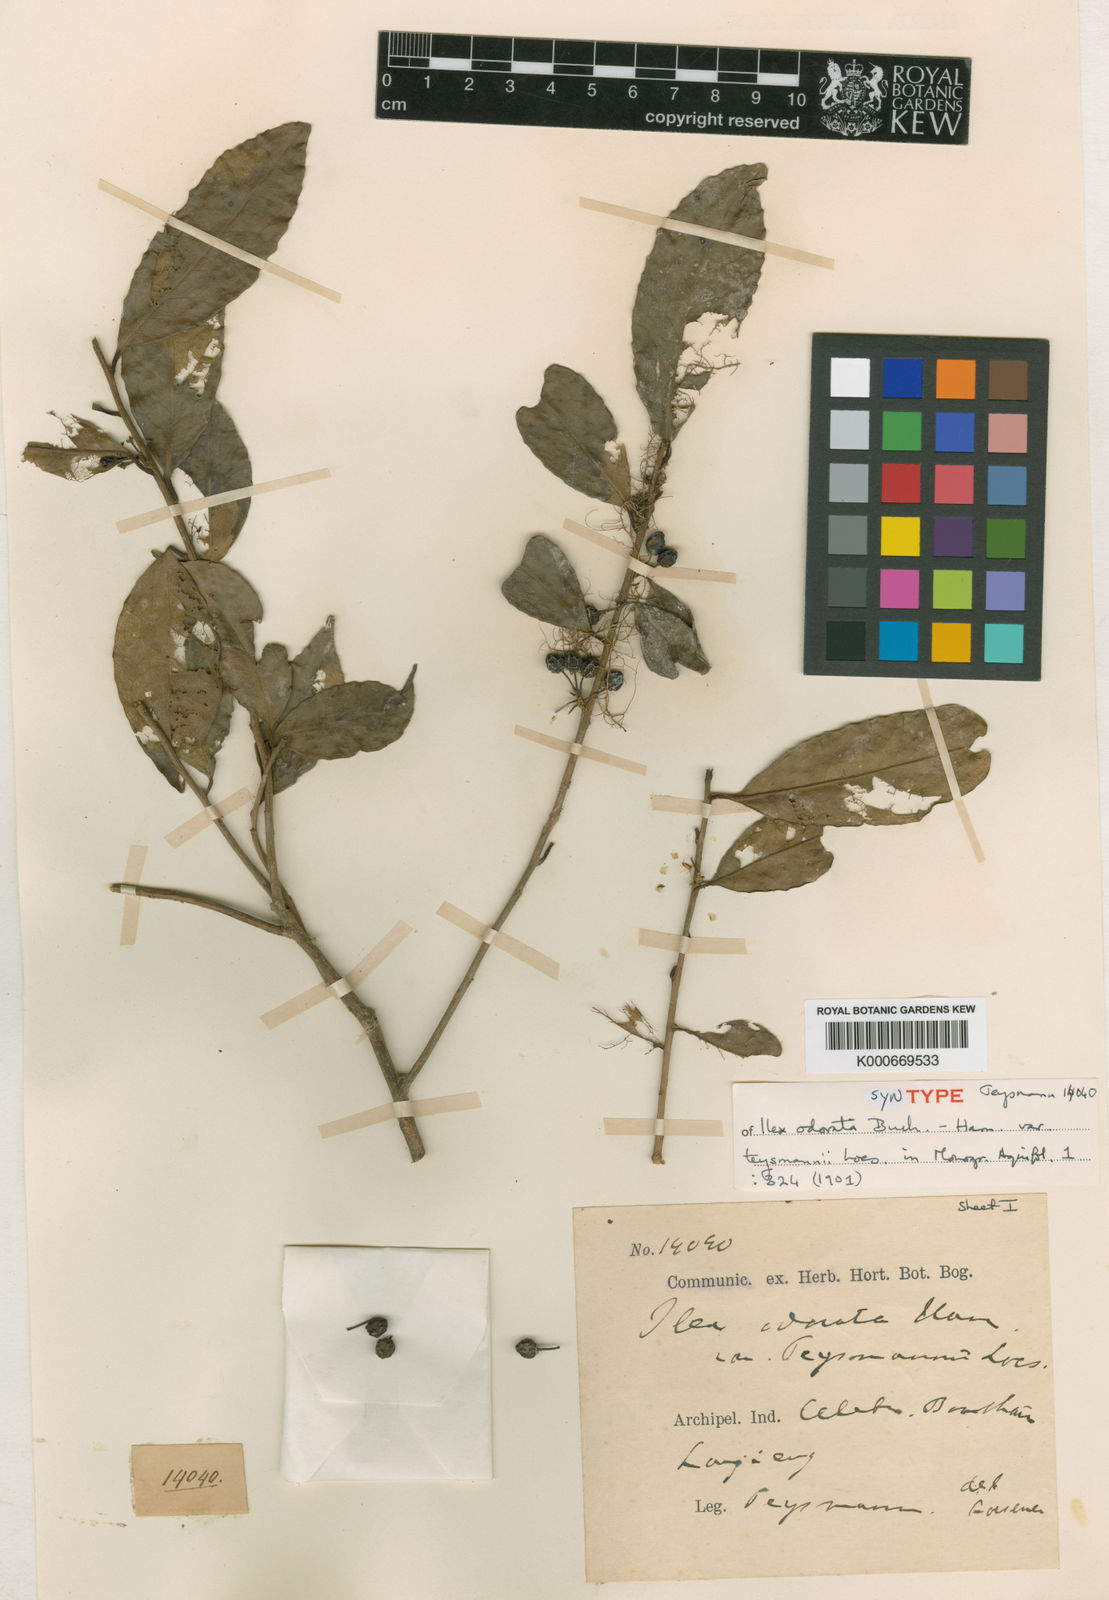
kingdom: Plantae
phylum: Tracheophyta
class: Magnoliopsida
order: Aquifoliales
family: Aquifoliaceae
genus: Ilex
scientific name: Ilex odorata
